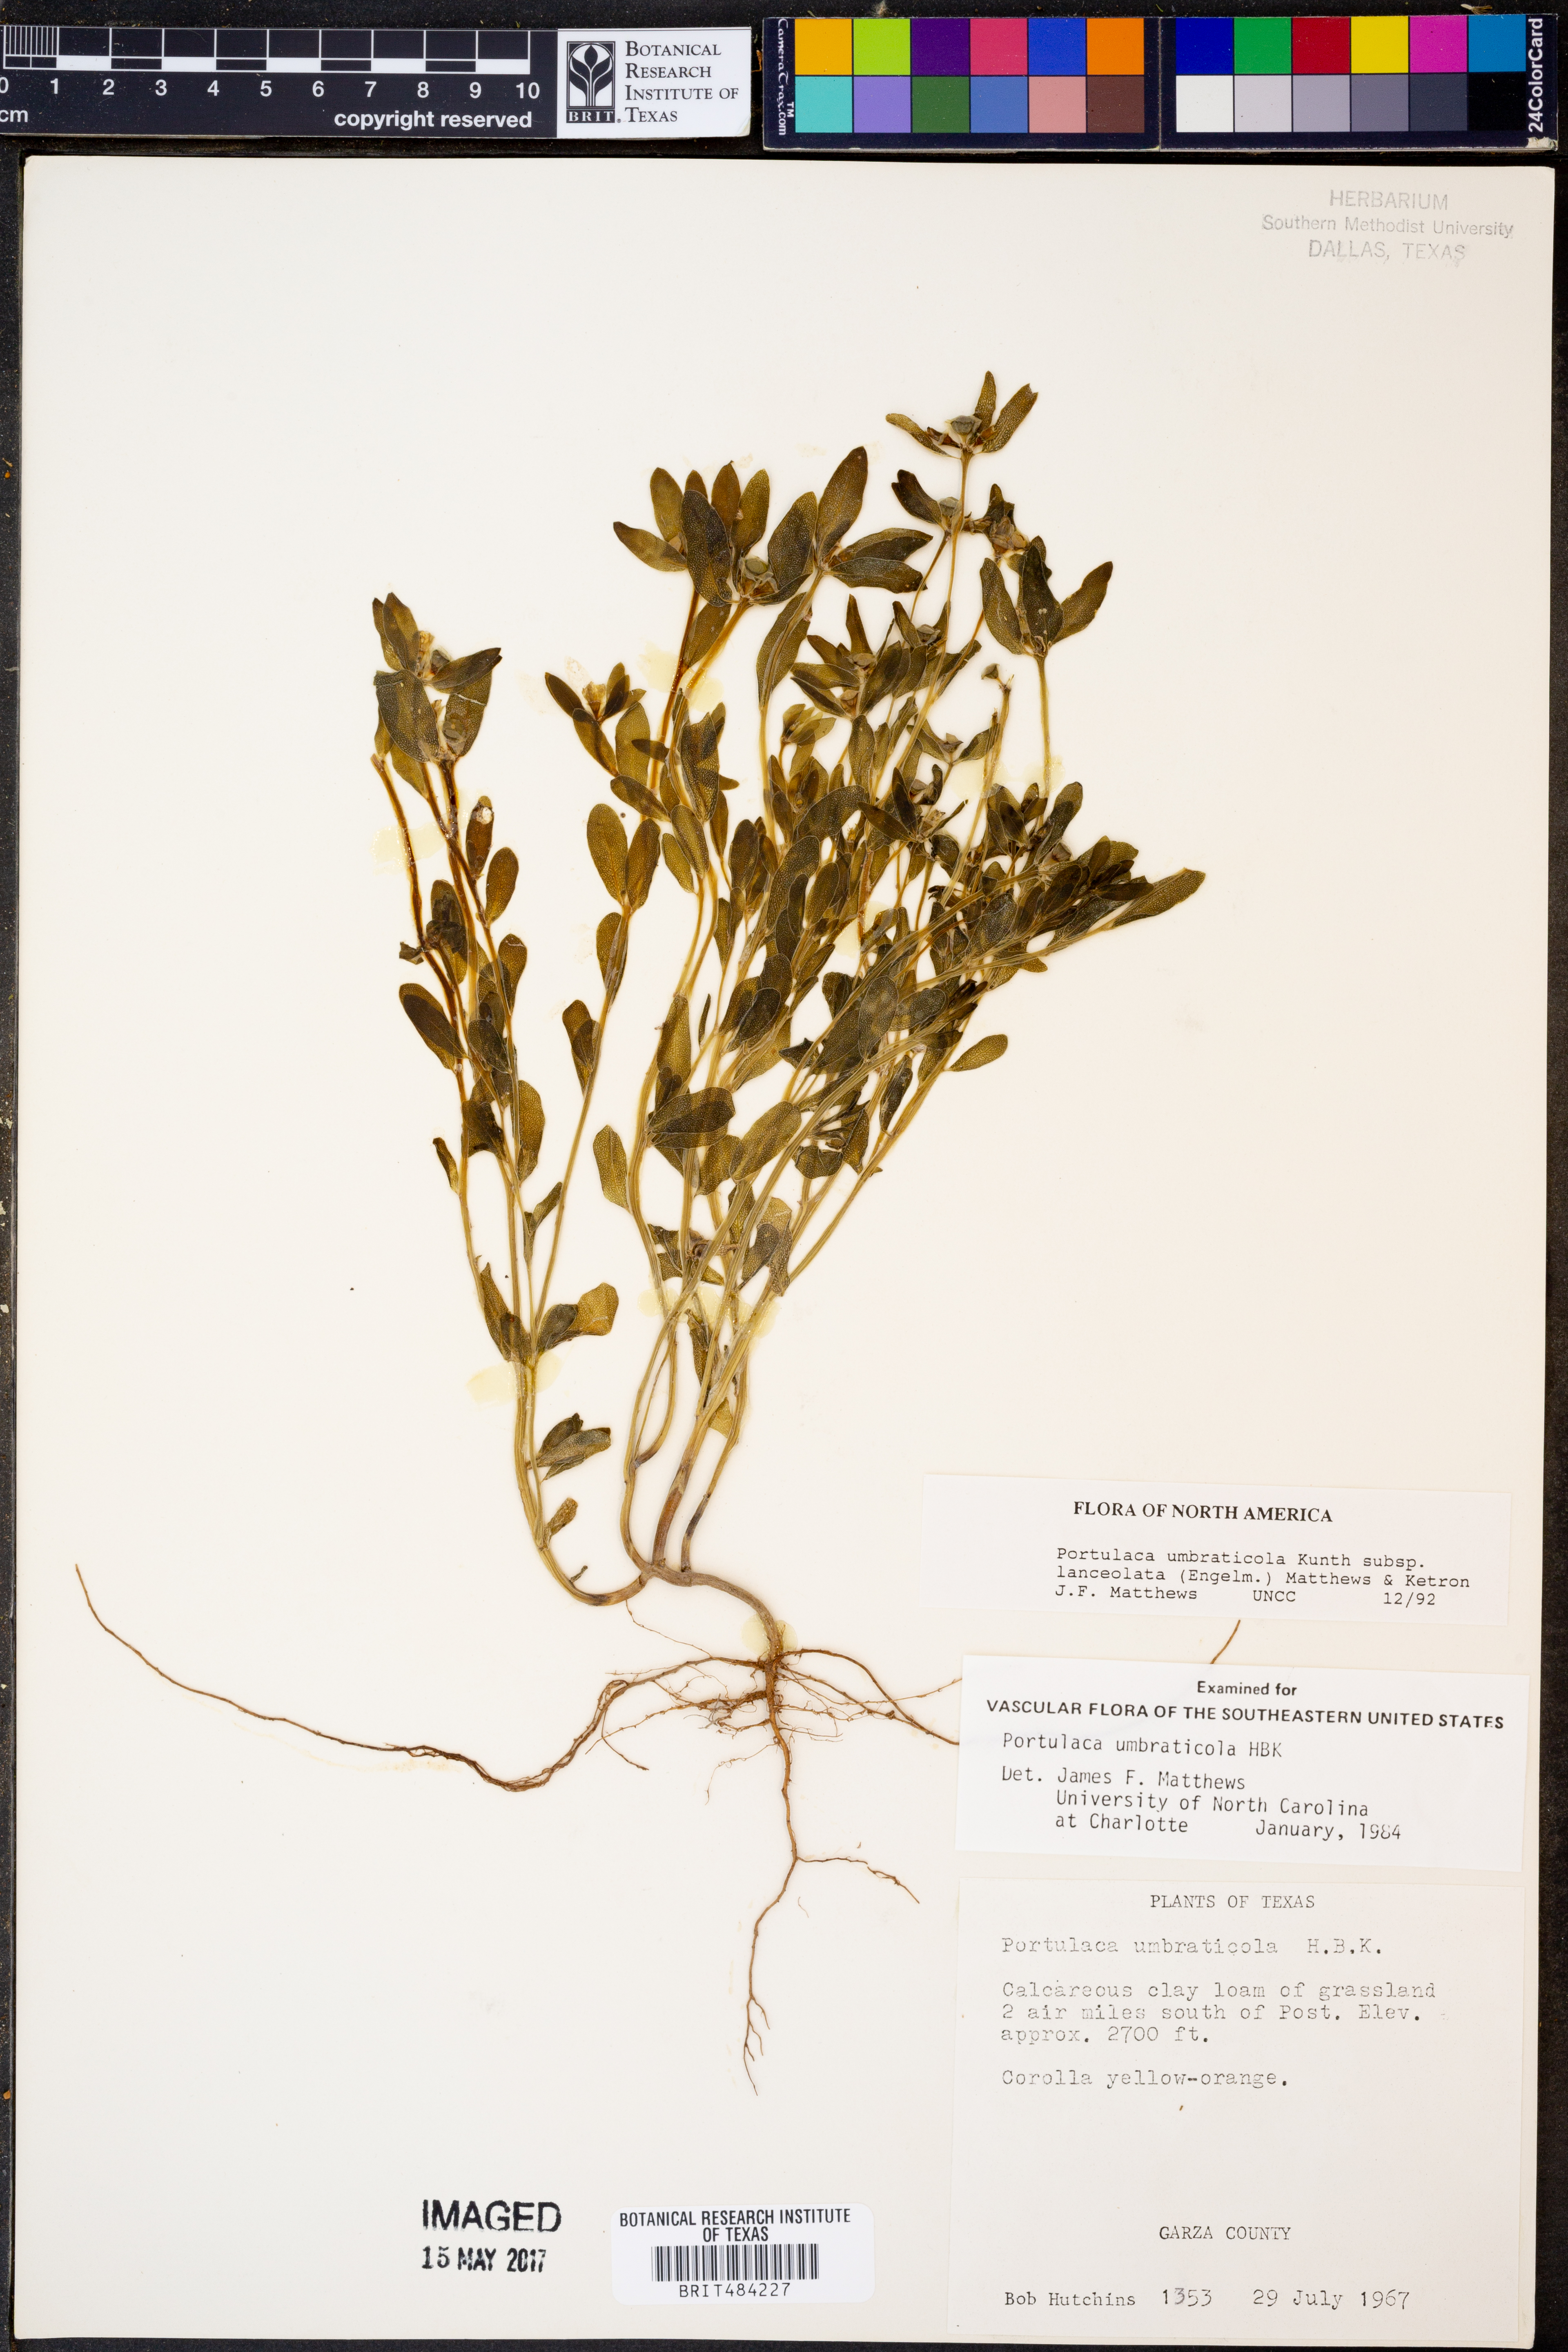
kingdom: Plantae
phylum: Tracheophyta
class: Magnoliopsida
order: Caryophyllales
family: Portulacaceae
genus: Portulaca
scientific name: Portulaca umbraticola
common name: Wingpod purslane
